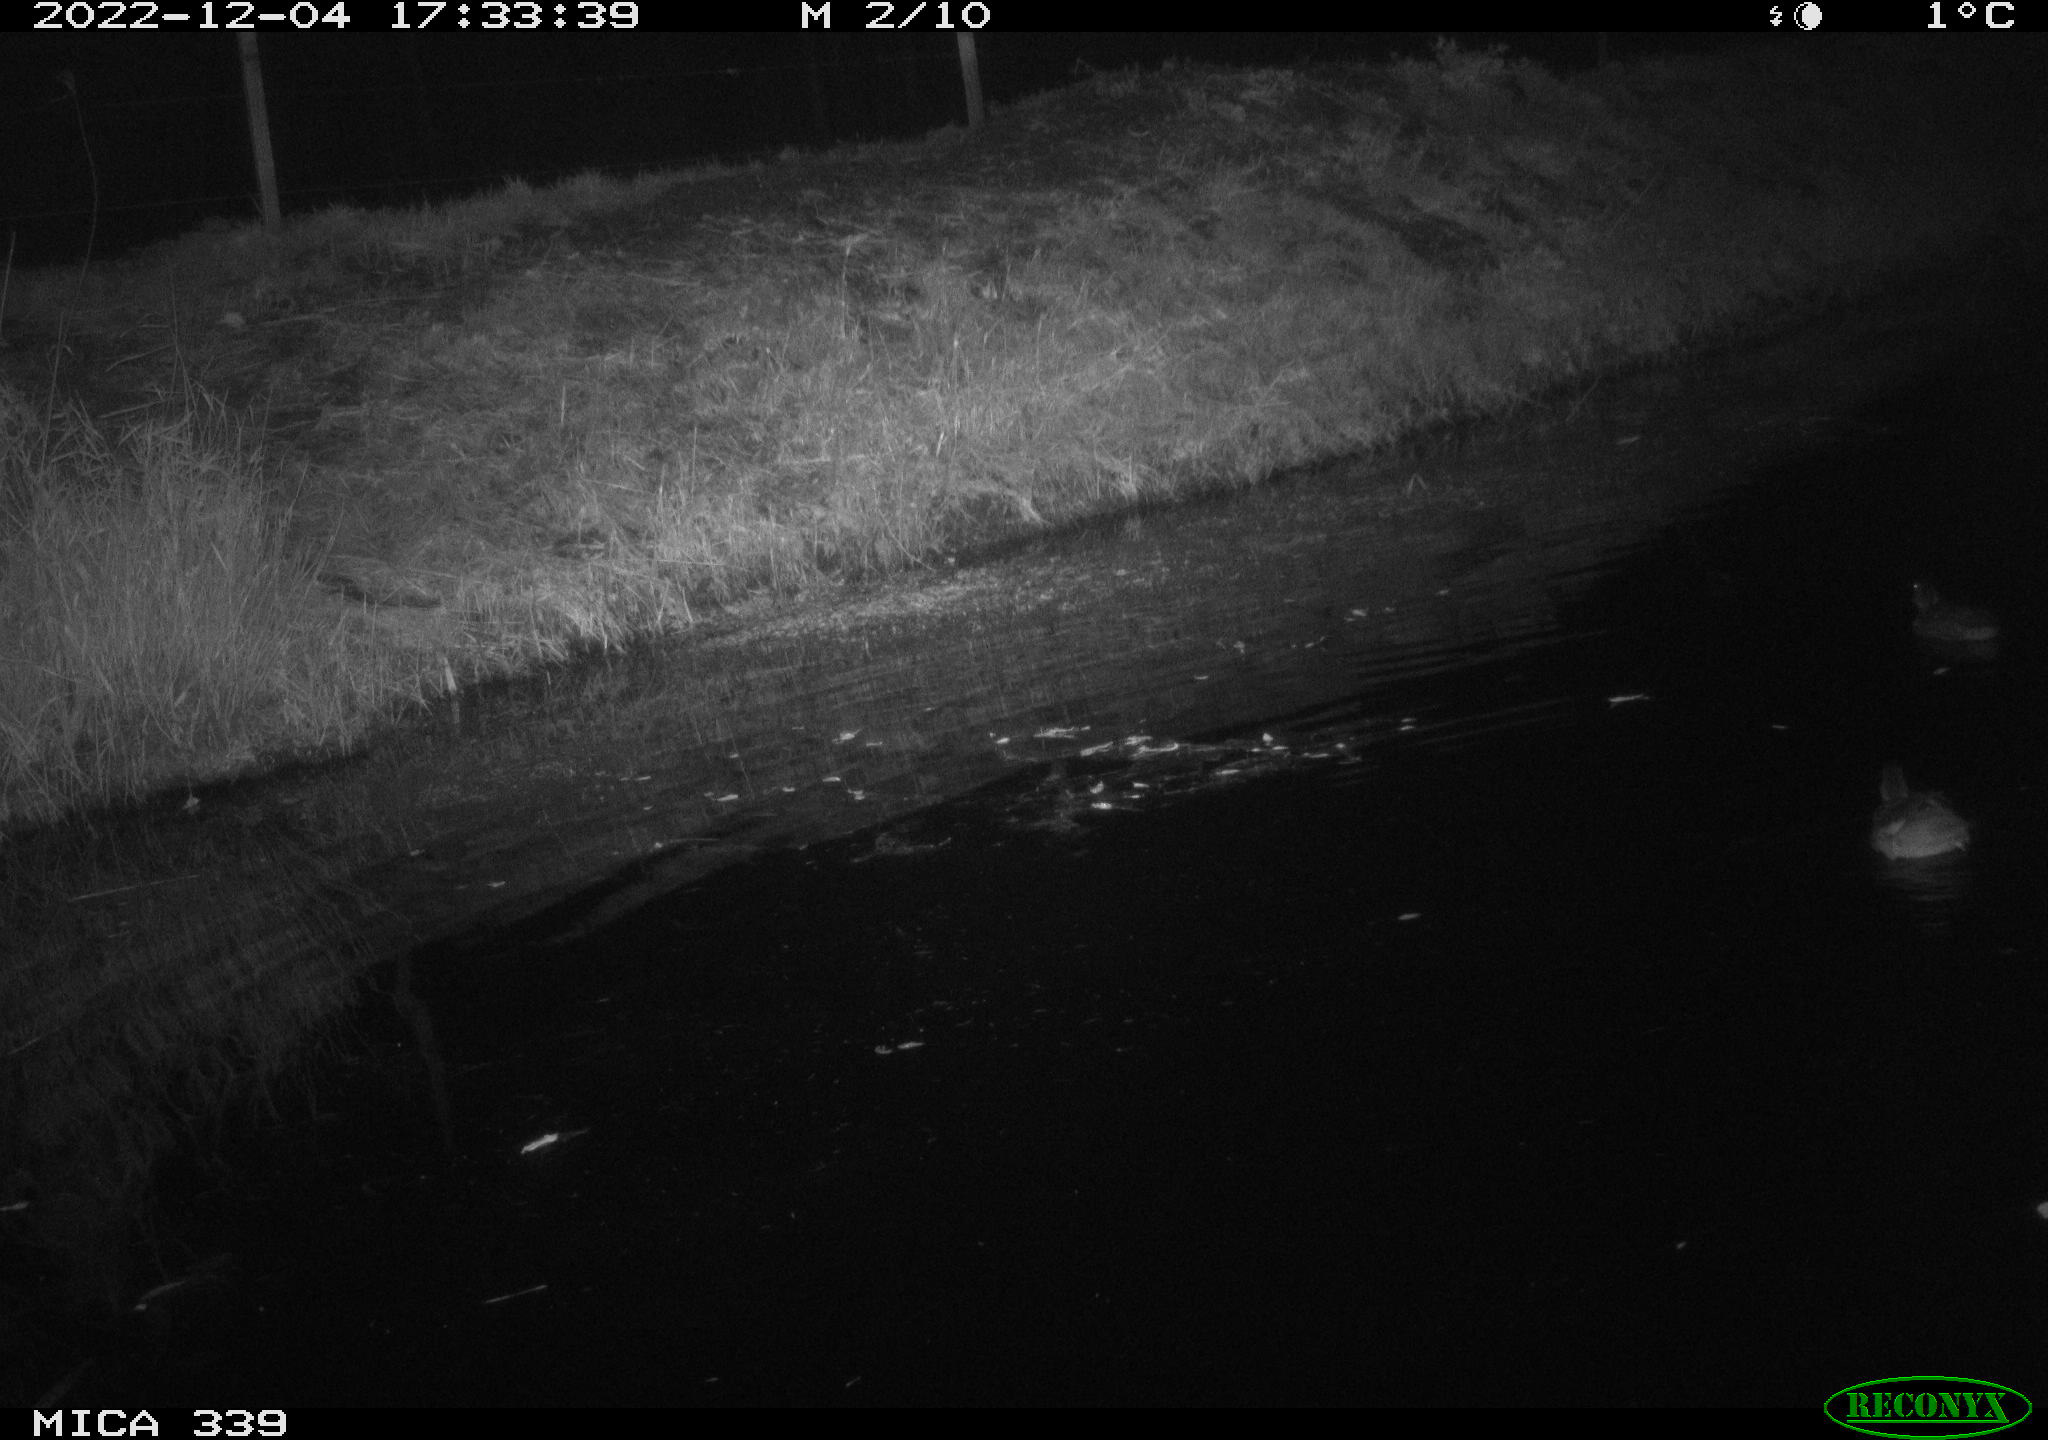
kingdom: Animalia
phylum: Chordata
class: Aves
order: Anseriformes
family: Anatidae
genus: Anas
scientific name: Anas
